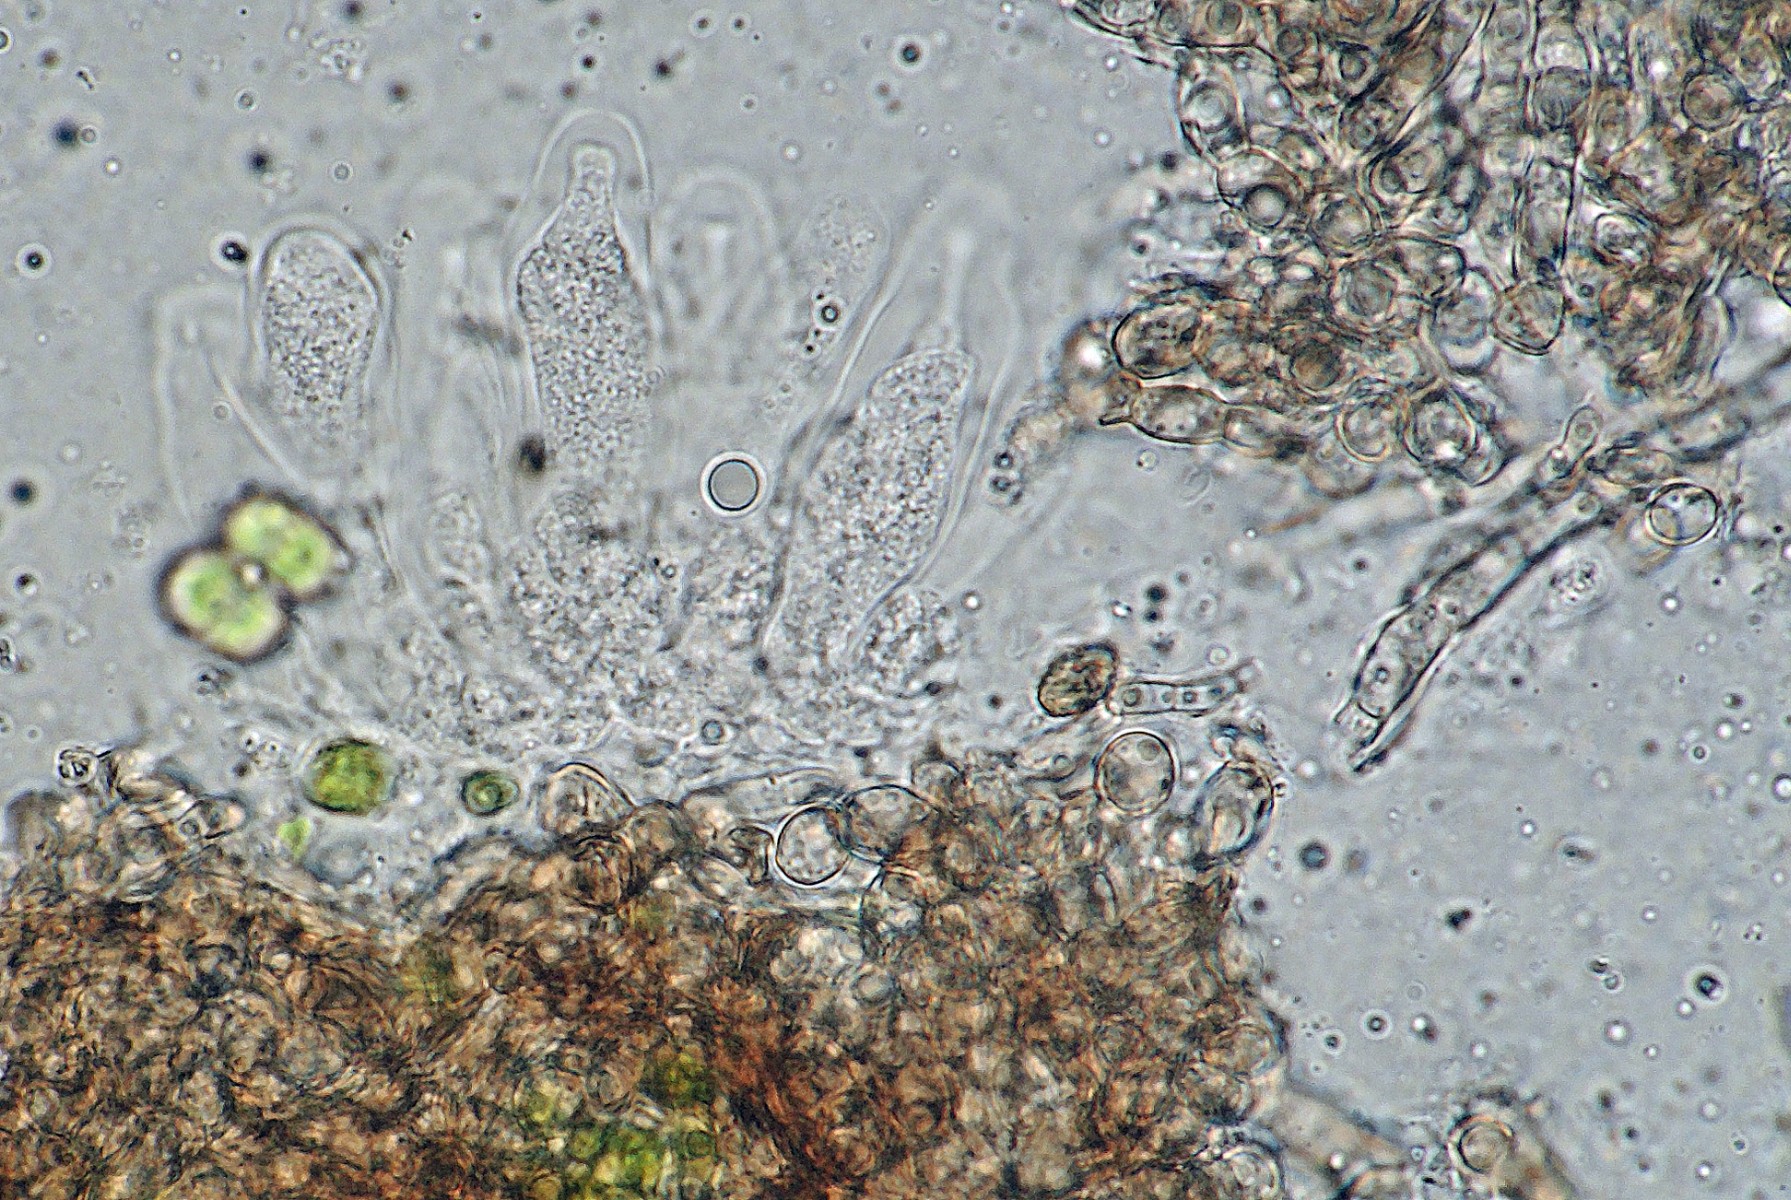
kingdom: Fungi
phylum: Ascomycota
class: Dothideomycetes
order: Capnodiales
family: Euantennariaceae
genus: Euantennaria
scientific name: Euantennaria
